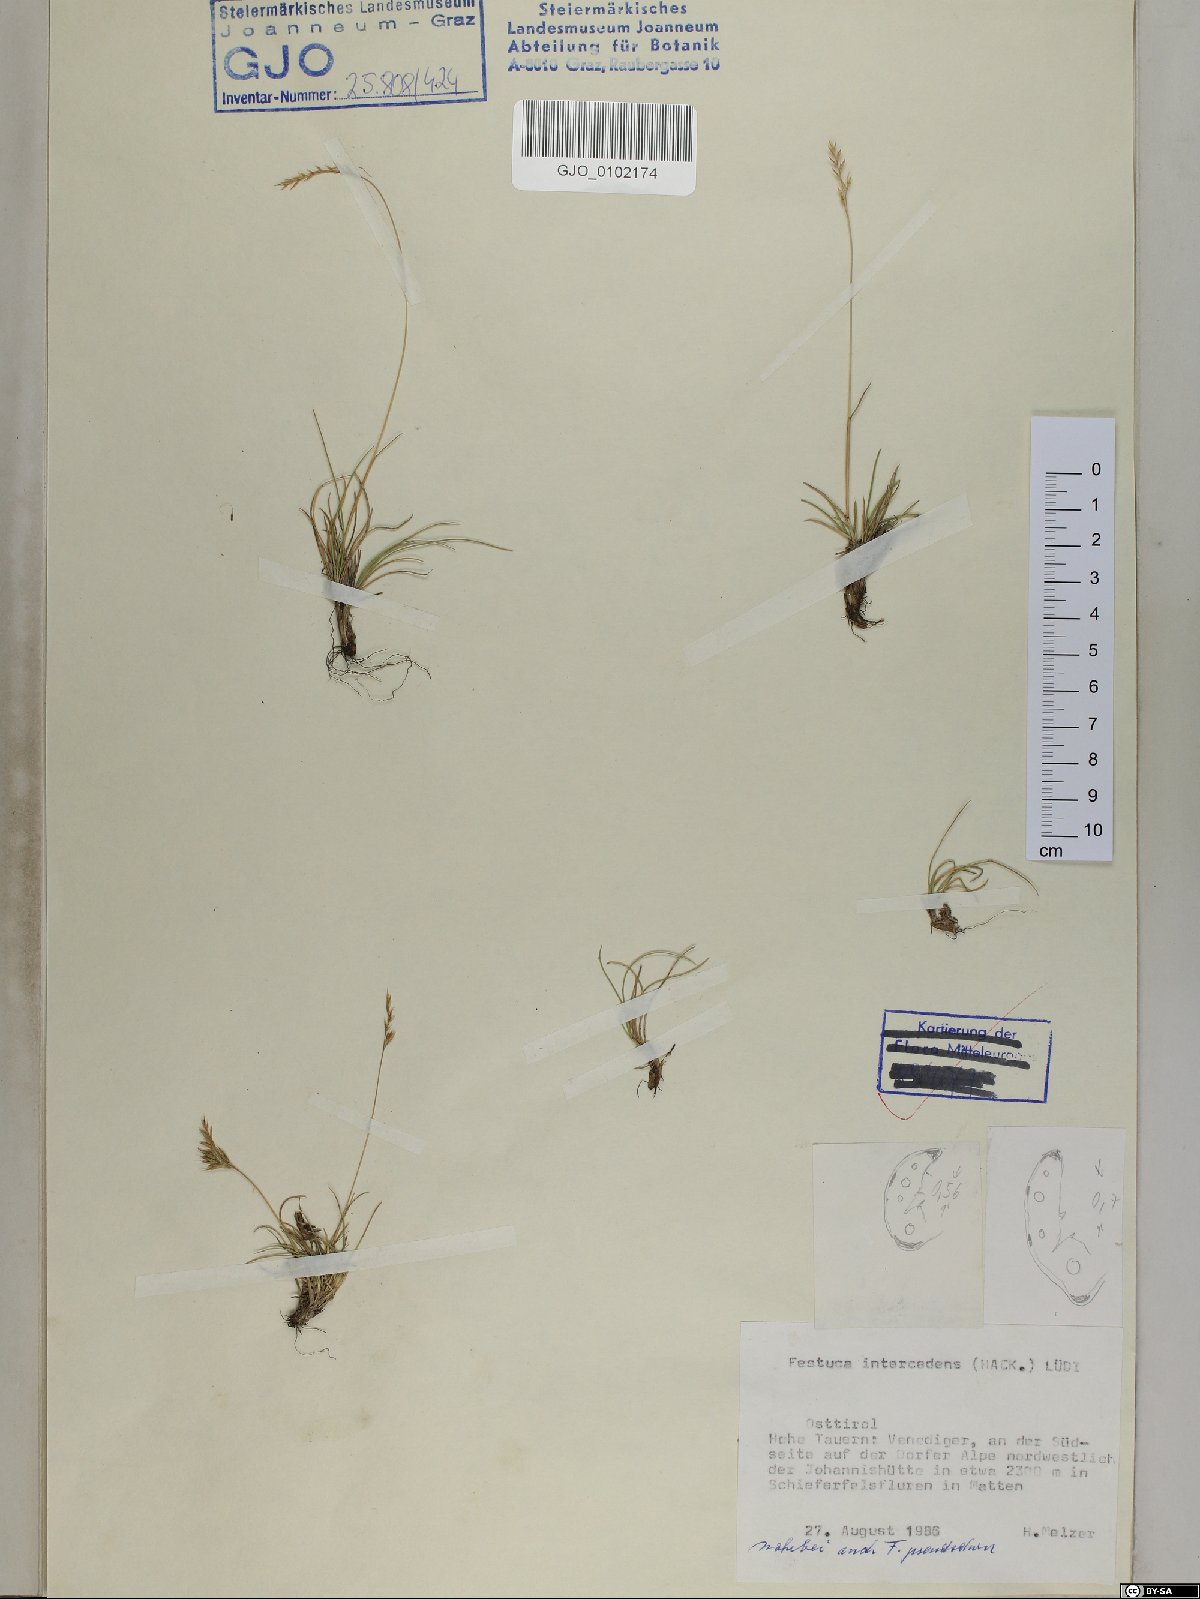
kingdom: Plantae
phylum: Tracheophyta
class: Liliopsida
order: Poales
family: Poaceae
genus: Festuca
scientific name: Festuca intercedens
